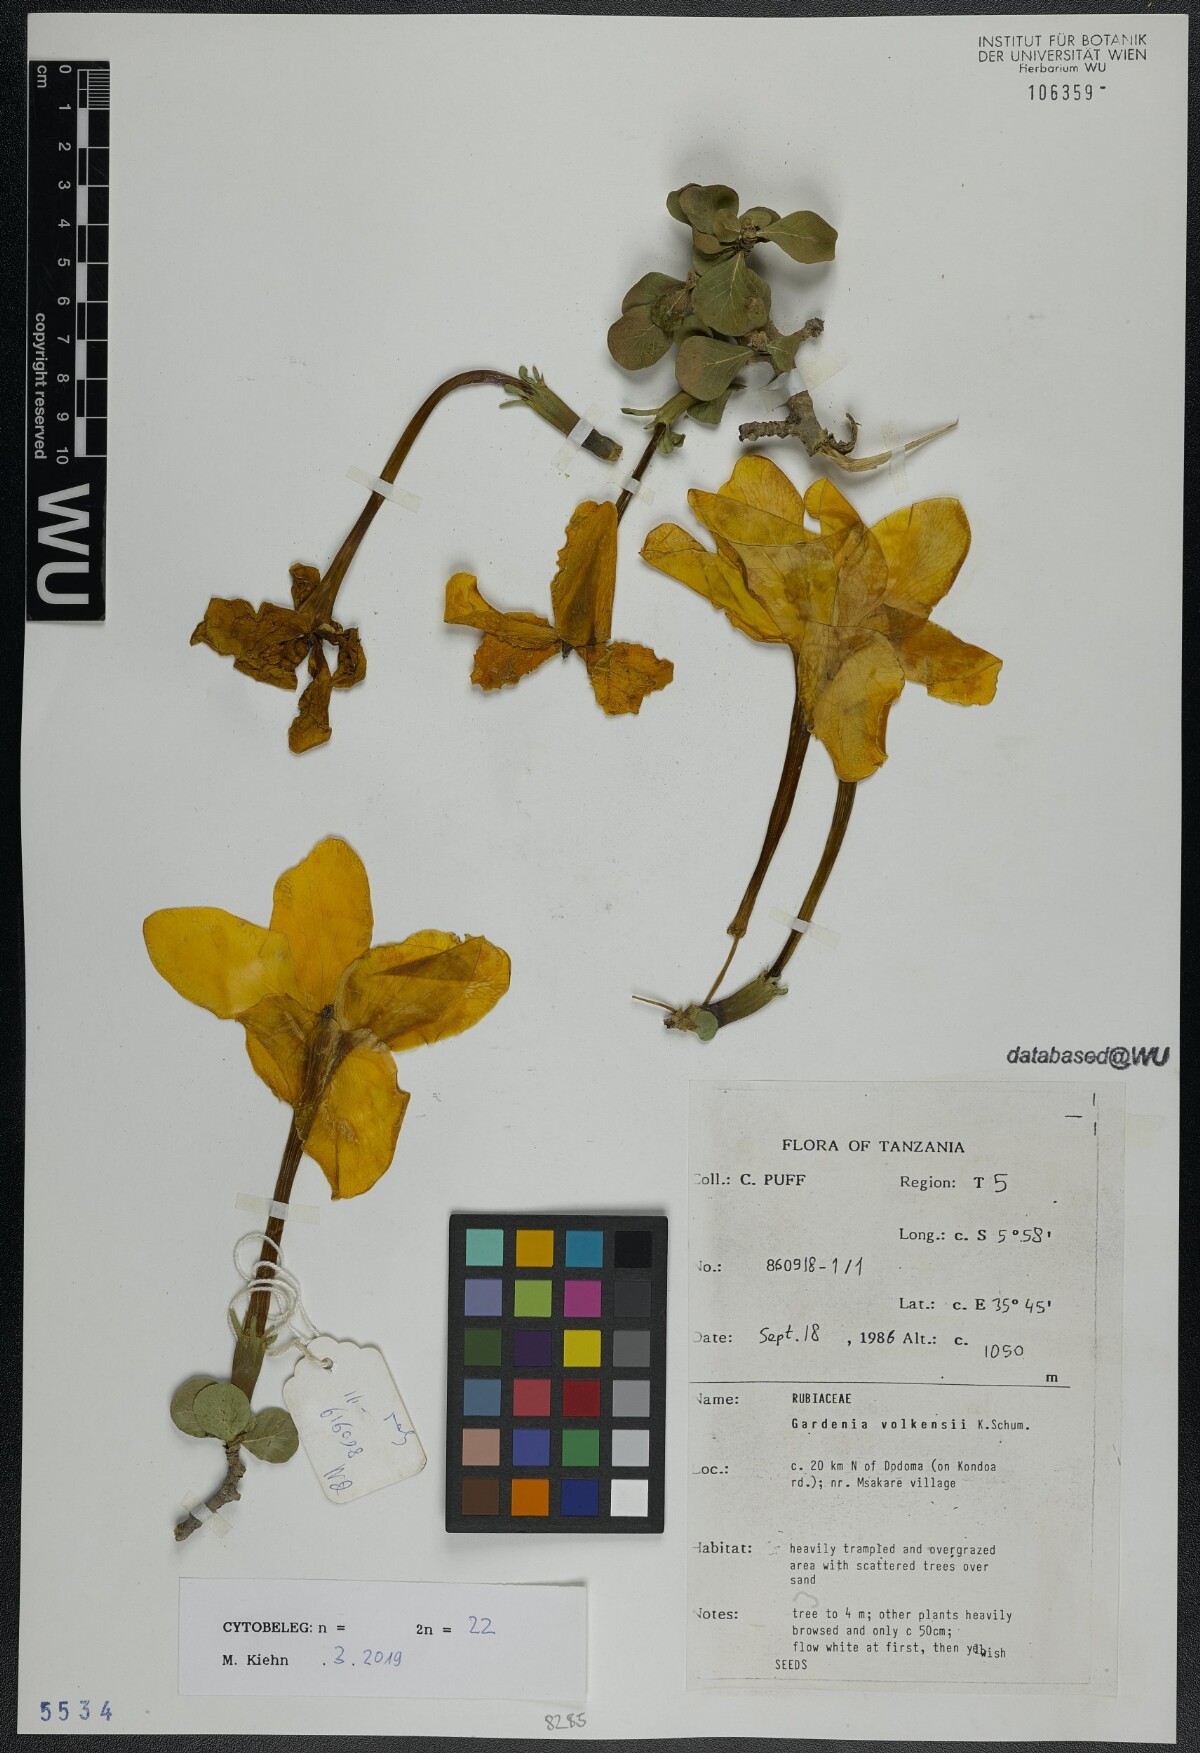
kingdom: Plantae
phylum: Tracheophyta
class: Magnoliopsida
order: Gentianales
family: Rubiaceae
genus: Gardenia
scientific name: Gardenia volkensii
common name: Common gardenia
